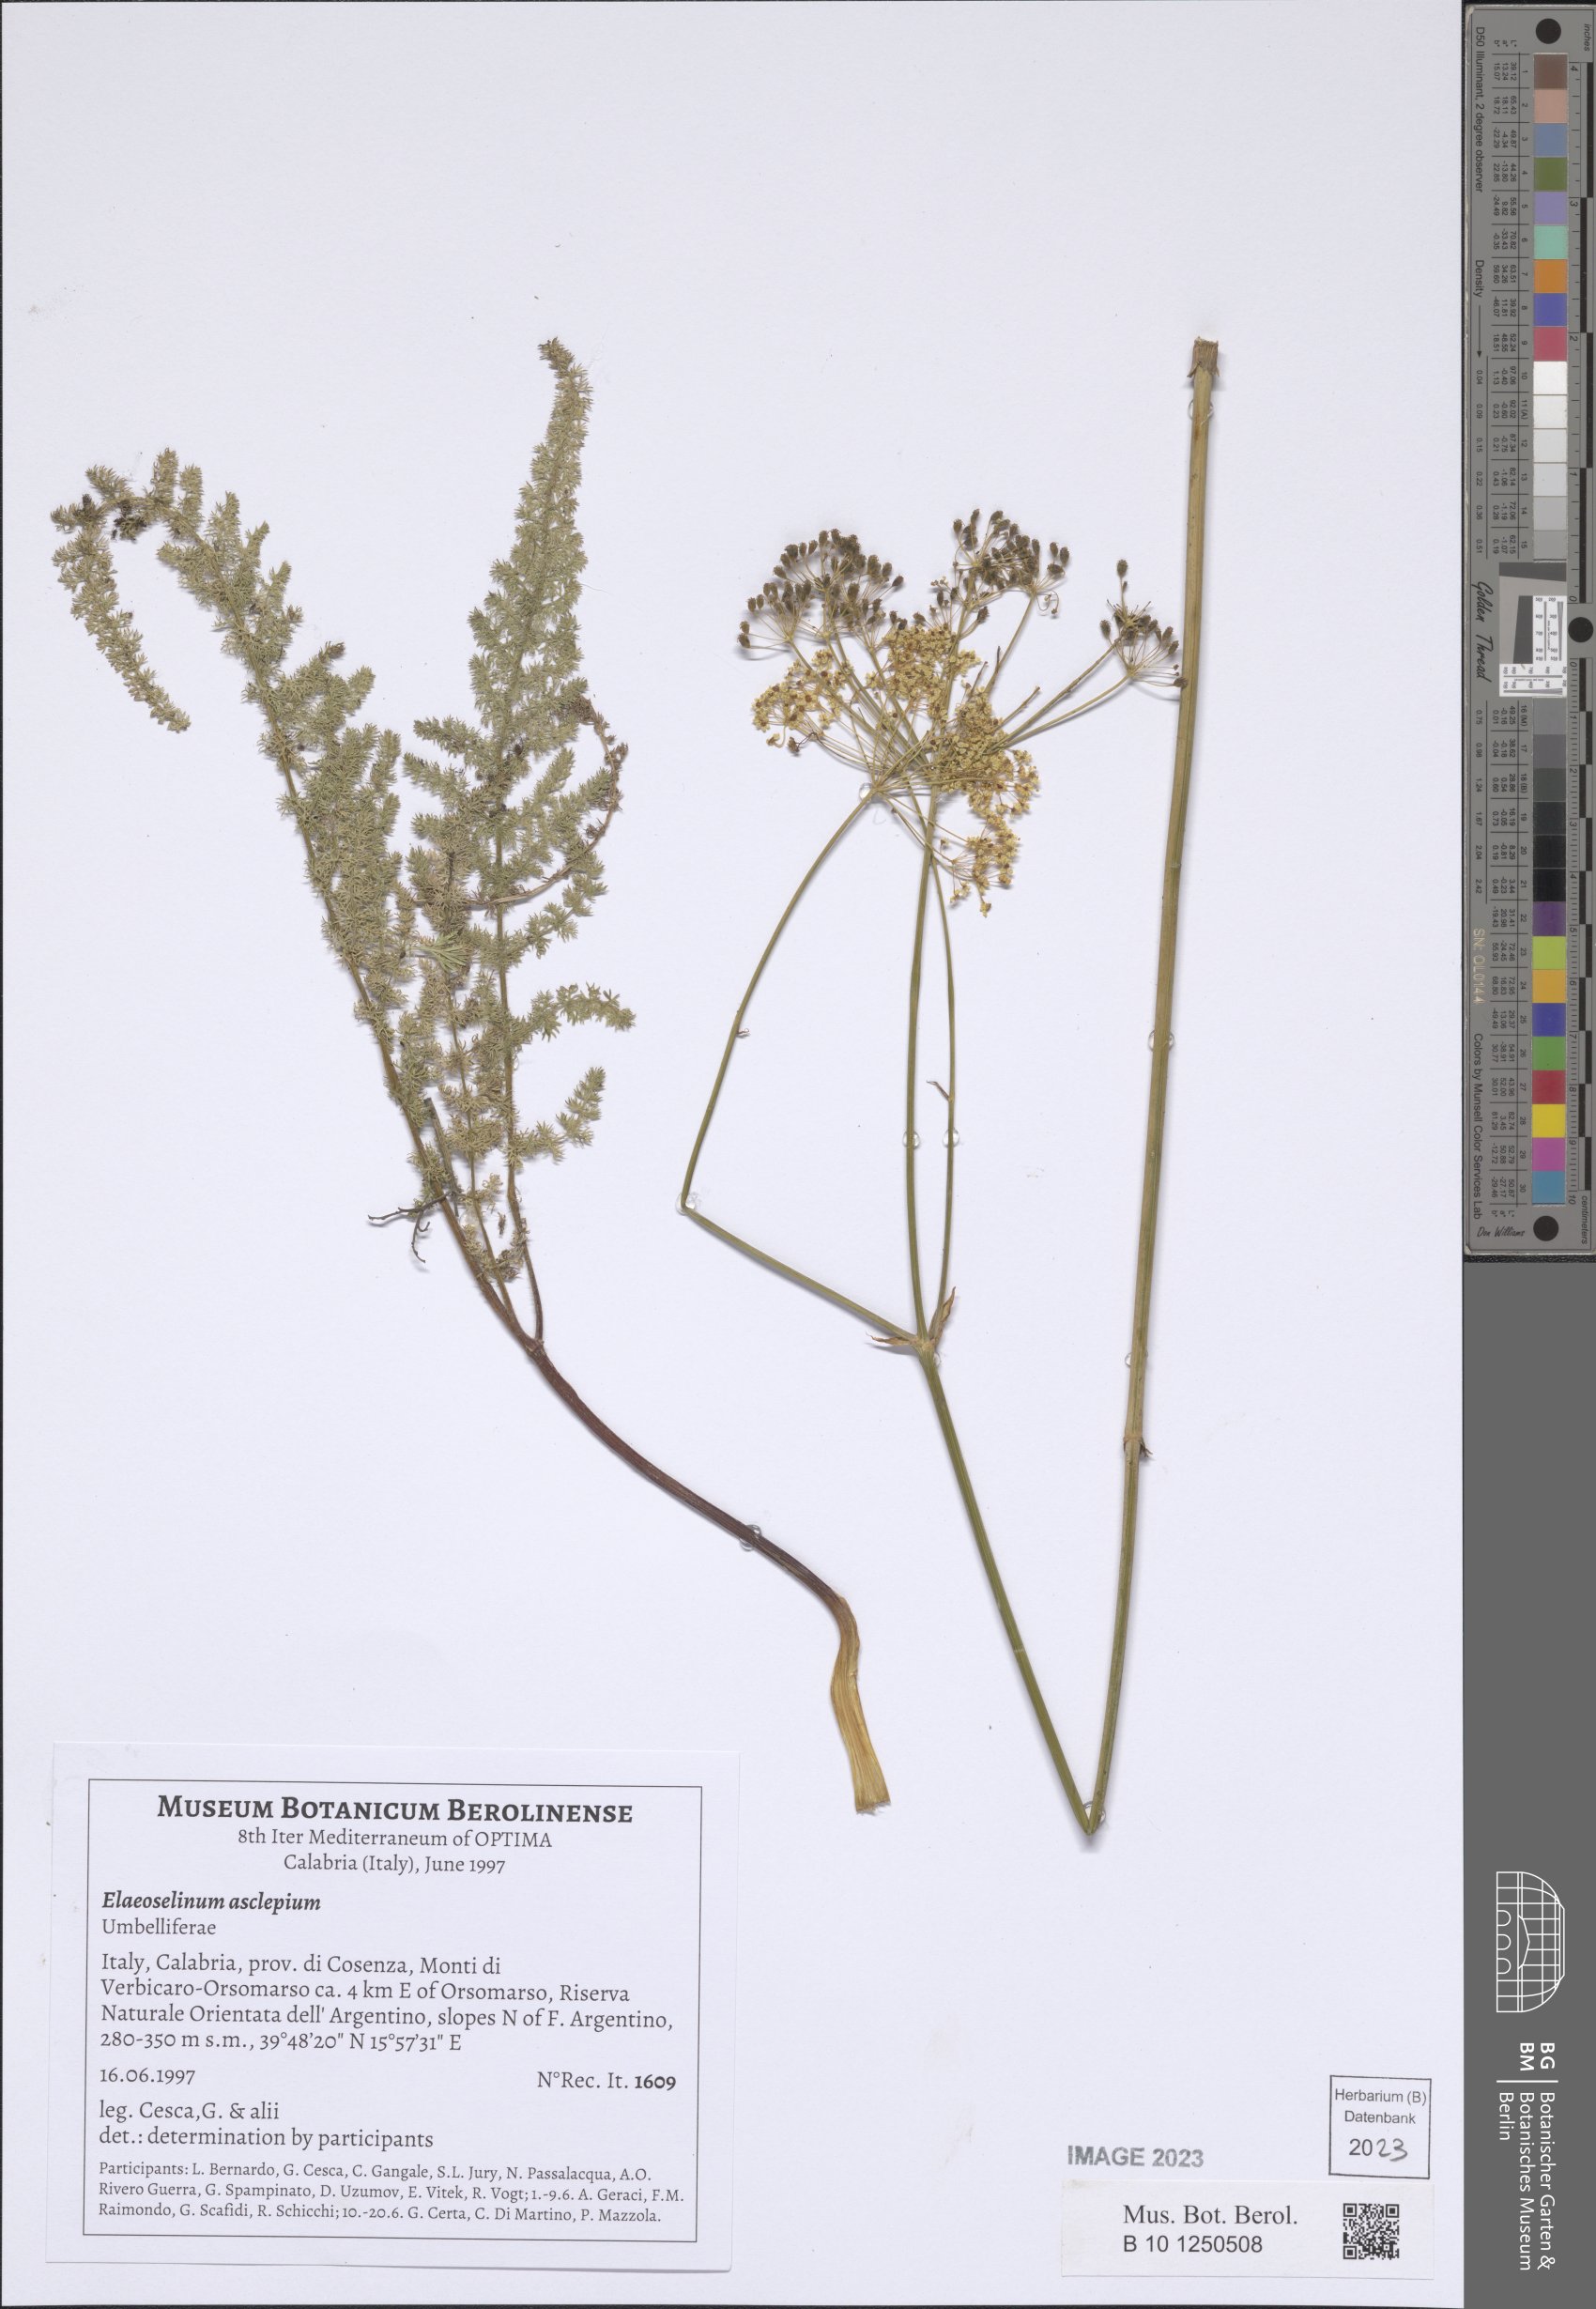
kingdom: Plantae
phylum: Tracheophyta
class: Magnoliopsida
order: Apiales
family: Apiaceae
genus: Thapsia
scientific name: Thapsia asclepium
